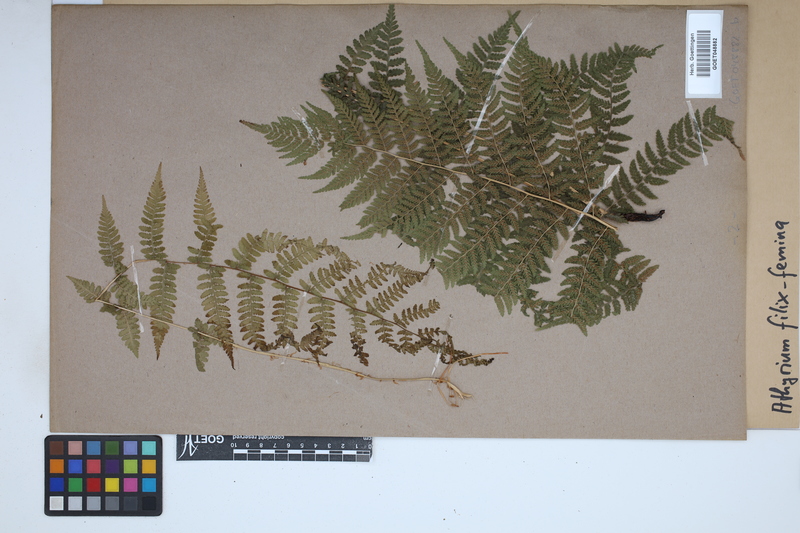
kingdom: Plantae
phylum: Tracheophyta
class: Polypodiopsida
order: Polypodiales
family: Athyriaceae
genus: Athyrium
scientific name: Athyrium filix-femina
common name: Lady fern
